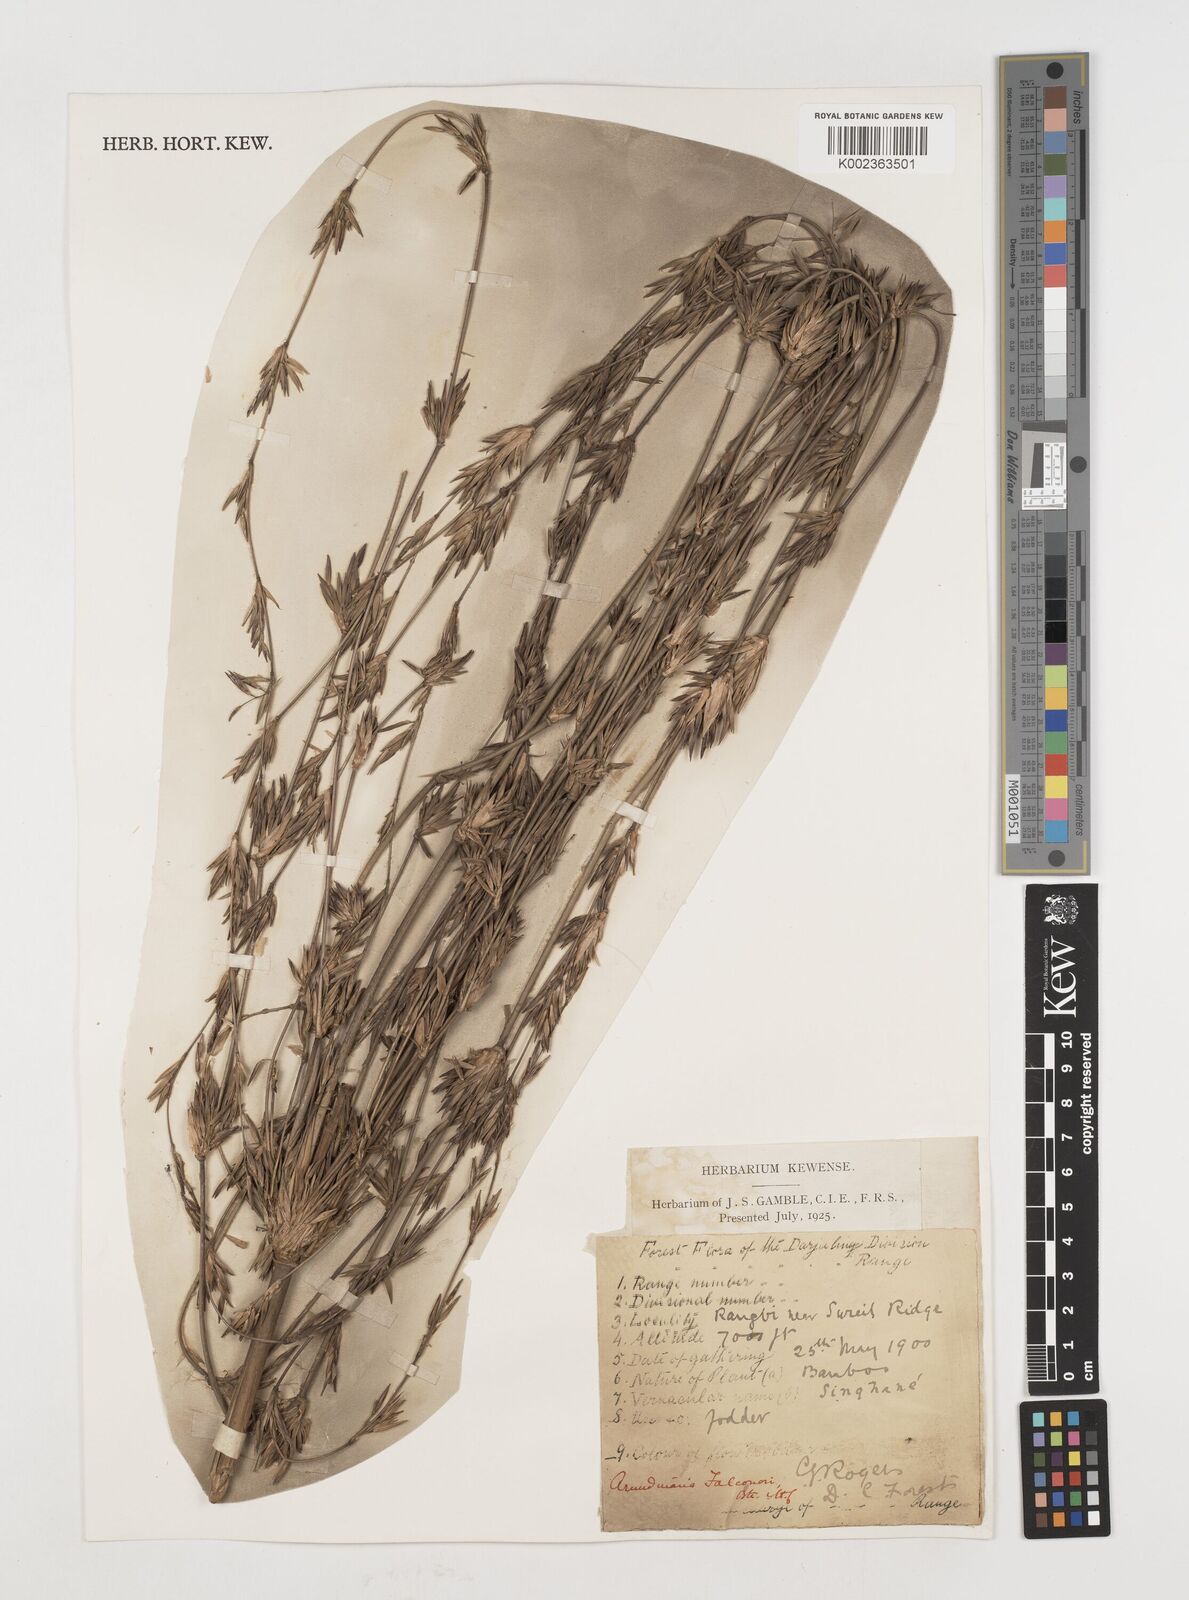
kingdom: Plantae
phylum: Tracheophyta
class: Liliopsida
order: Poales
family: Poaceae
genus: Himalayacalamus
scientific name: Himalayacalamus falconeri
